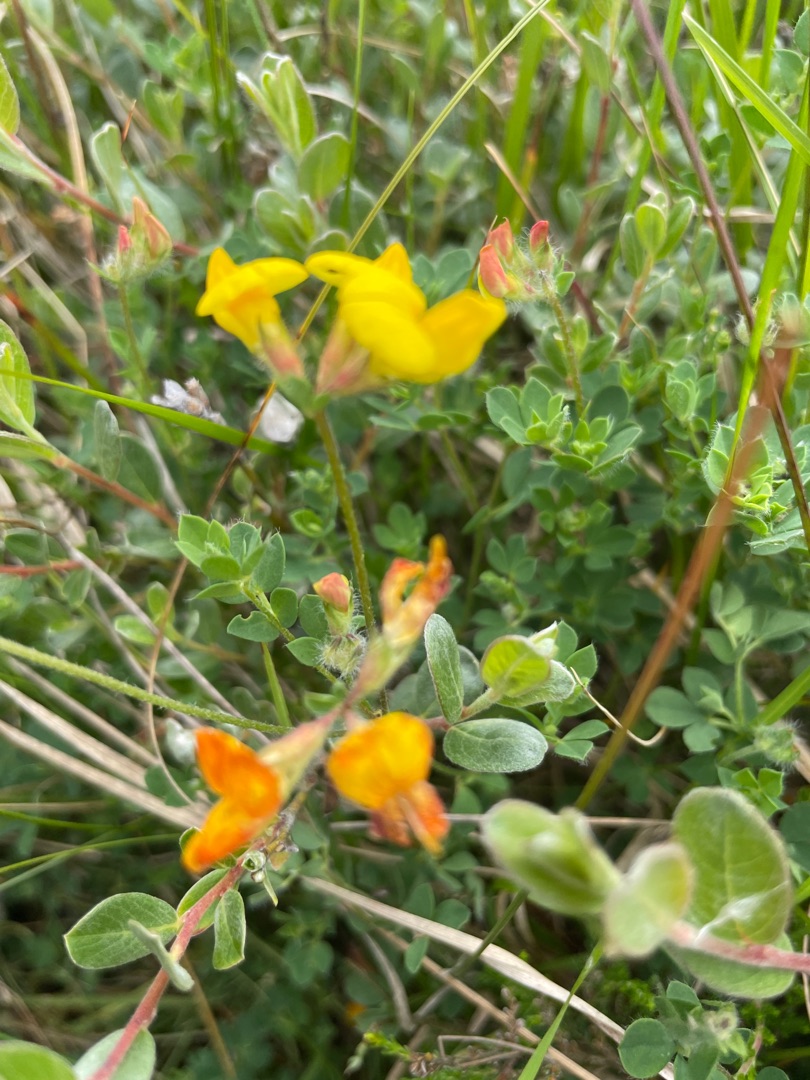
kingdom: Plantae
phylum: Tracheophyta
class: Magnoliopsida
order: Fabales
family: Fabaceae
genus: Lotus
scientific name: Lotus corniculatus
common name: Almindelig kællingetand
